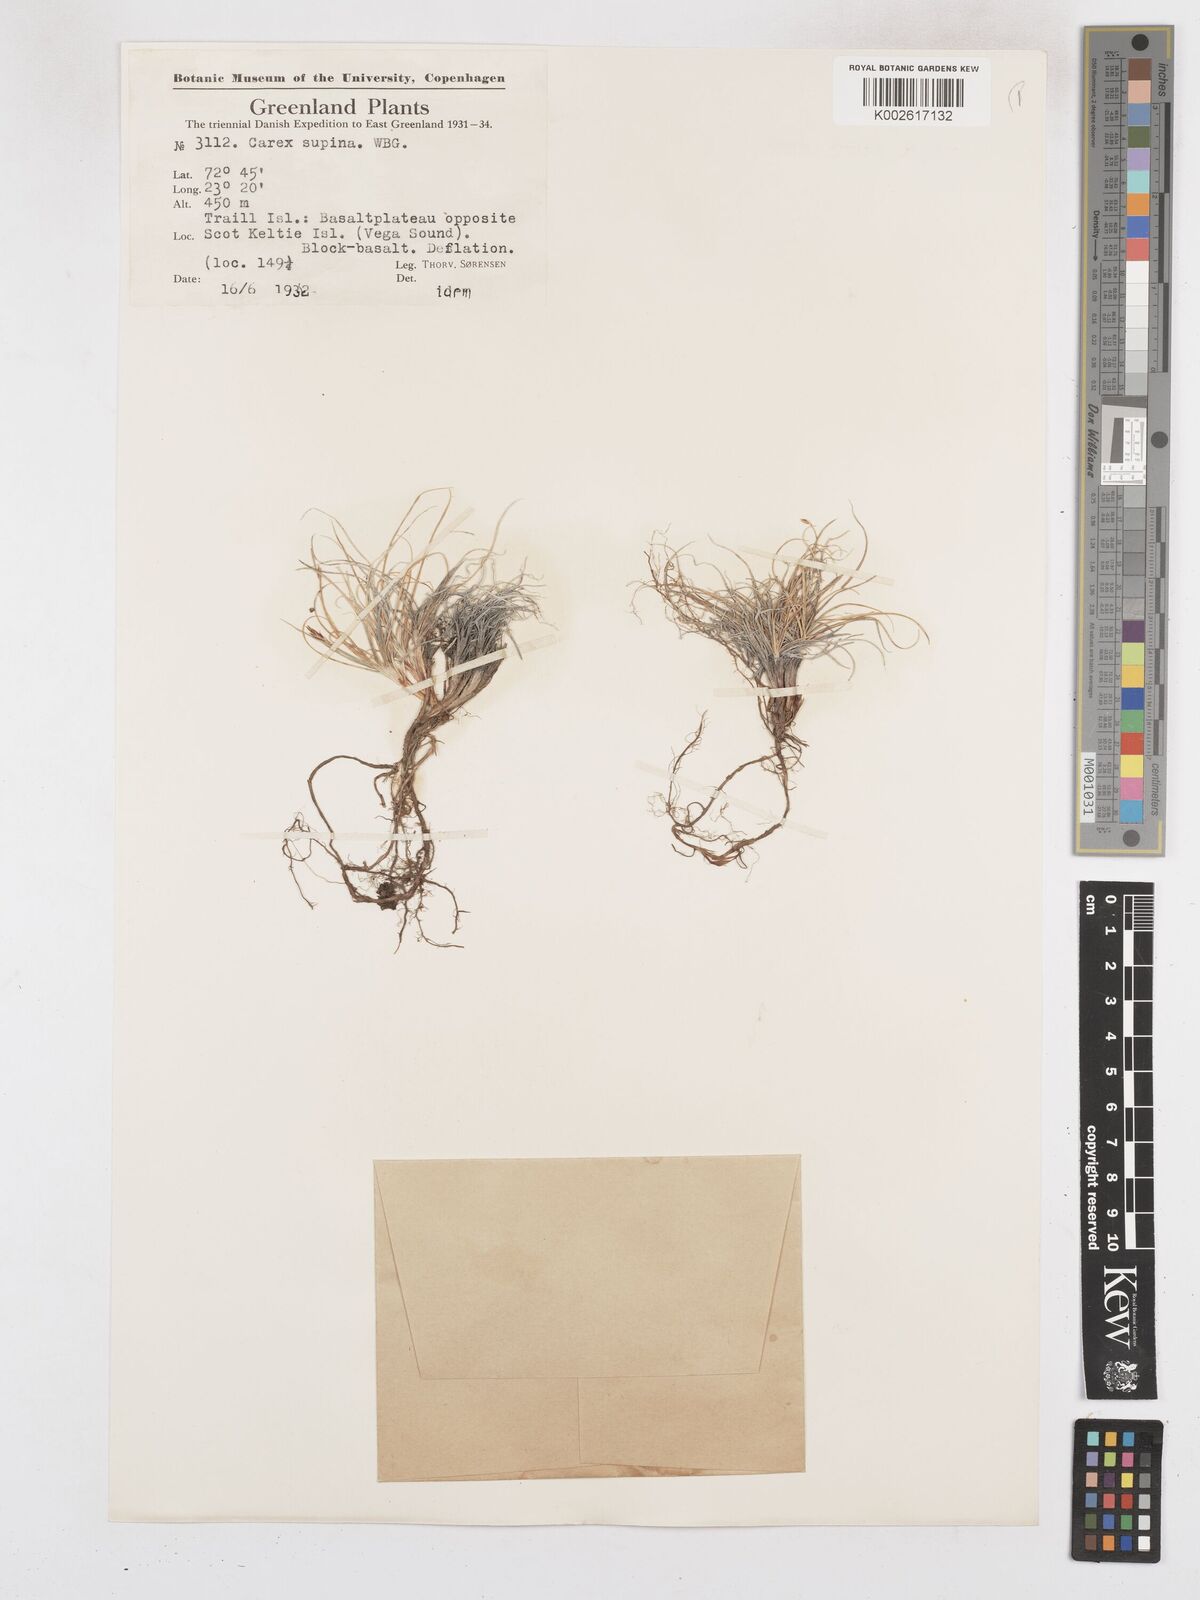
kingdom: Plantae
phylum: Tracheophyta
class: Liliopsida
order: Poales
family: Cyperaceae
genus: Carex
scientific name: Carex supina
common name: Lying-back sedge
